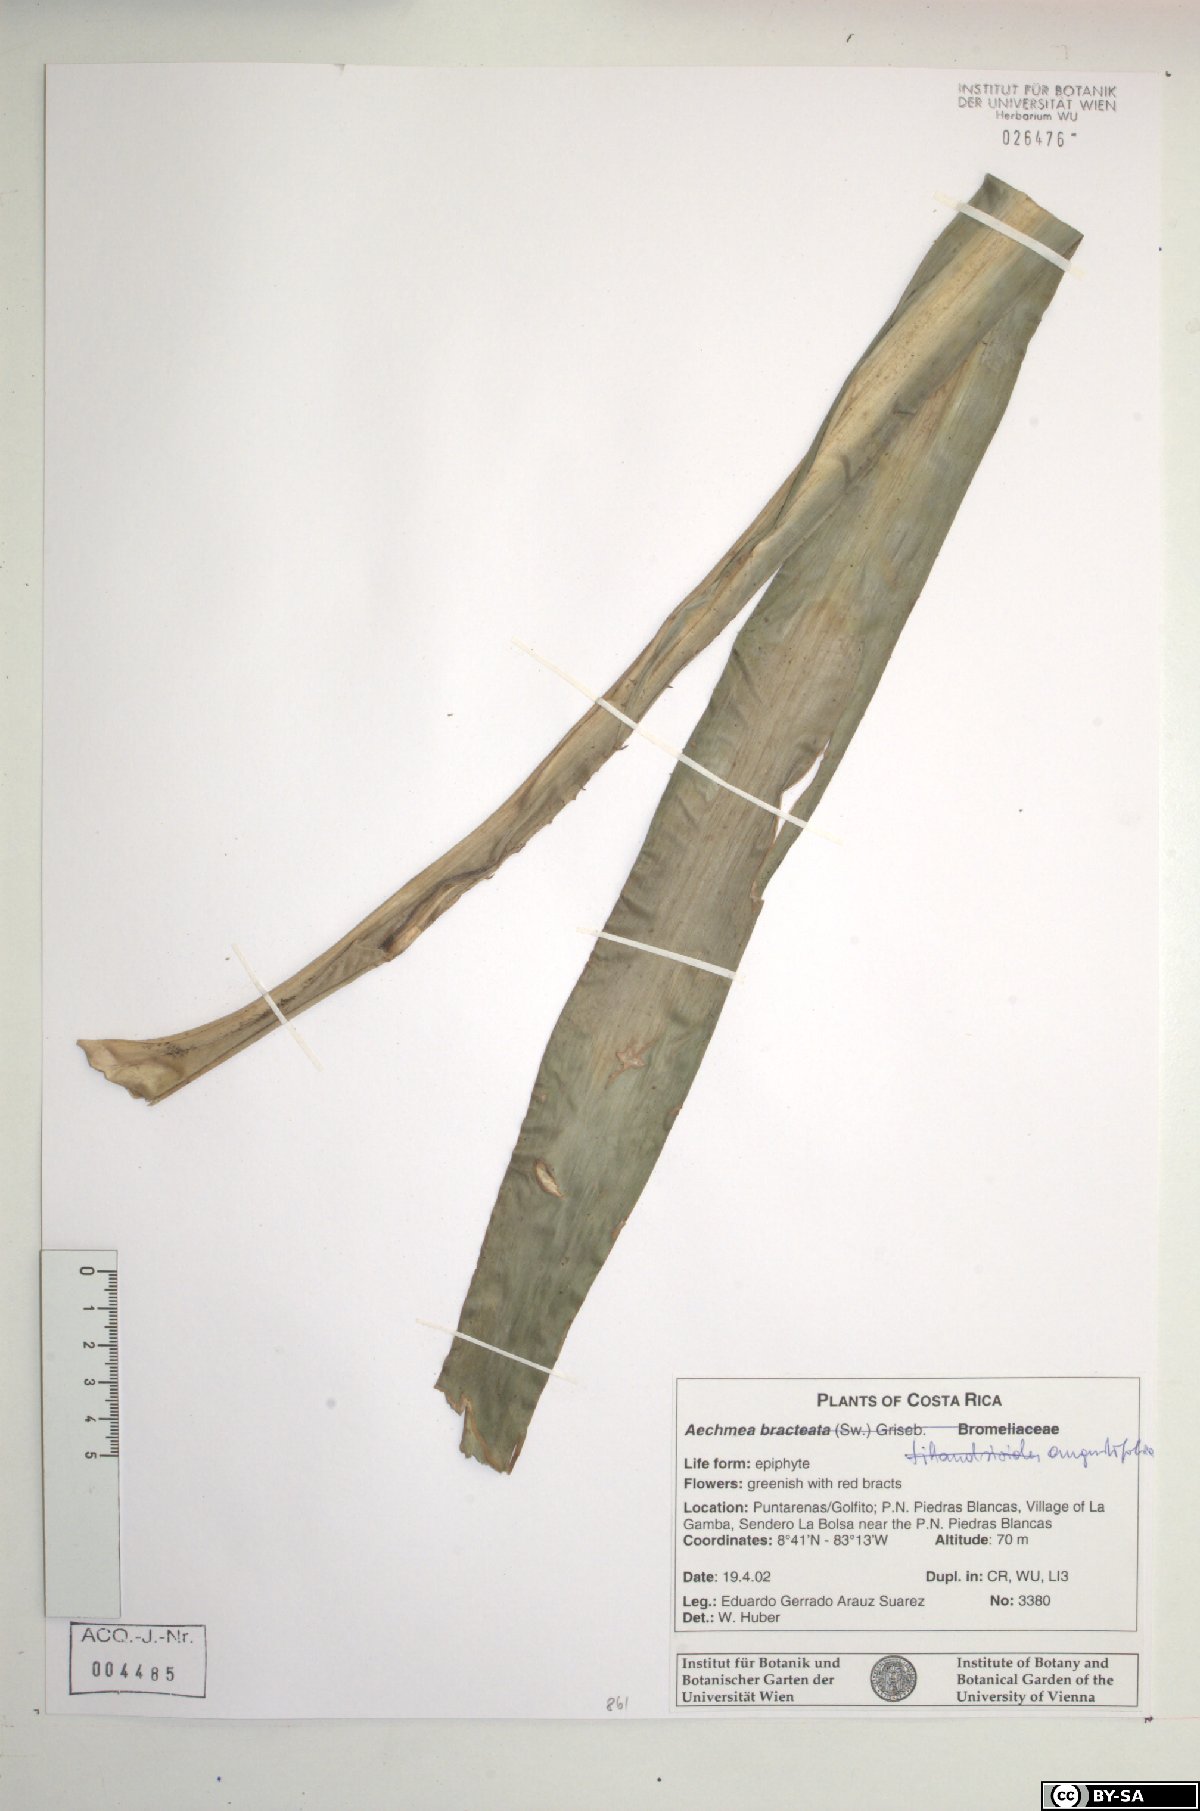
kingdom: Plantae
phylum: Tracheophyta
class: Liliopsida
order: Poales
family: Bromeliaceae
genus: Aechmea
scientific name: Aechmea bracteata
